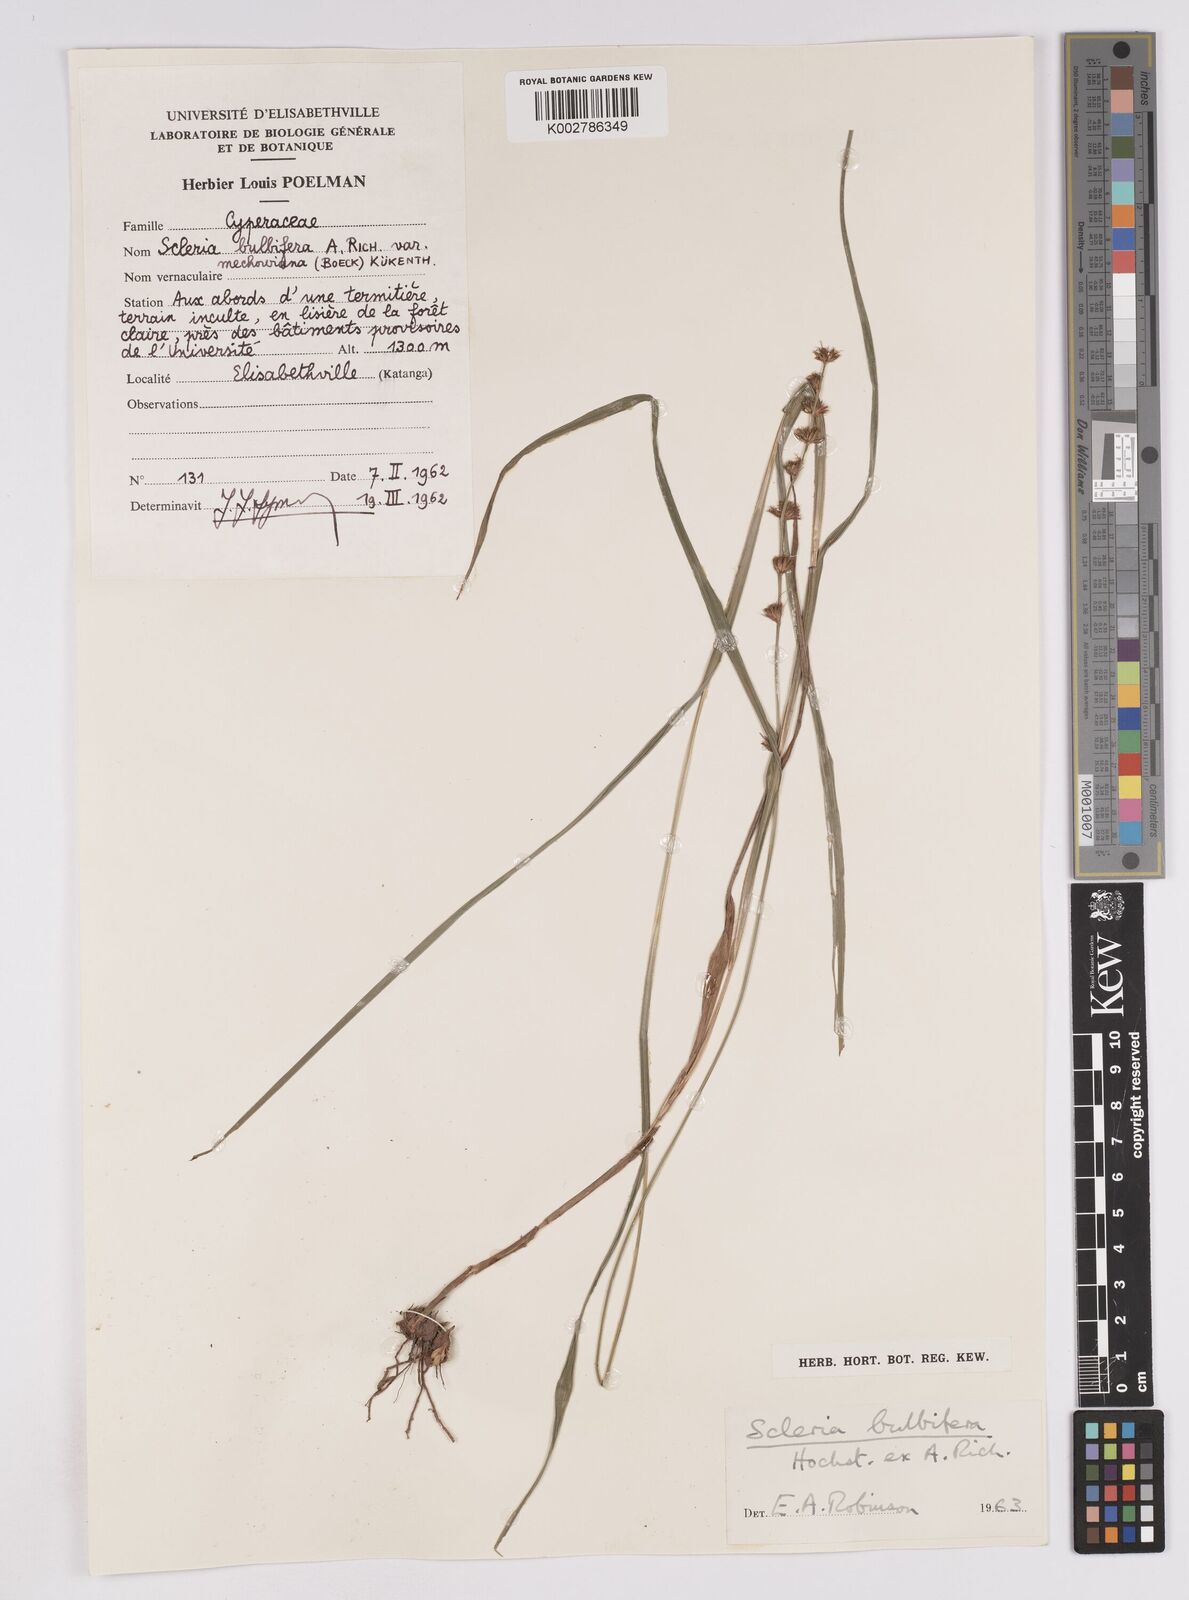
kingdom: Plantae
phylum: Tracheophyta
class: Liliopsida
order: Poales
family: Cyperaceae
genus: Scleria
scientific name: Scleria bulbifera
